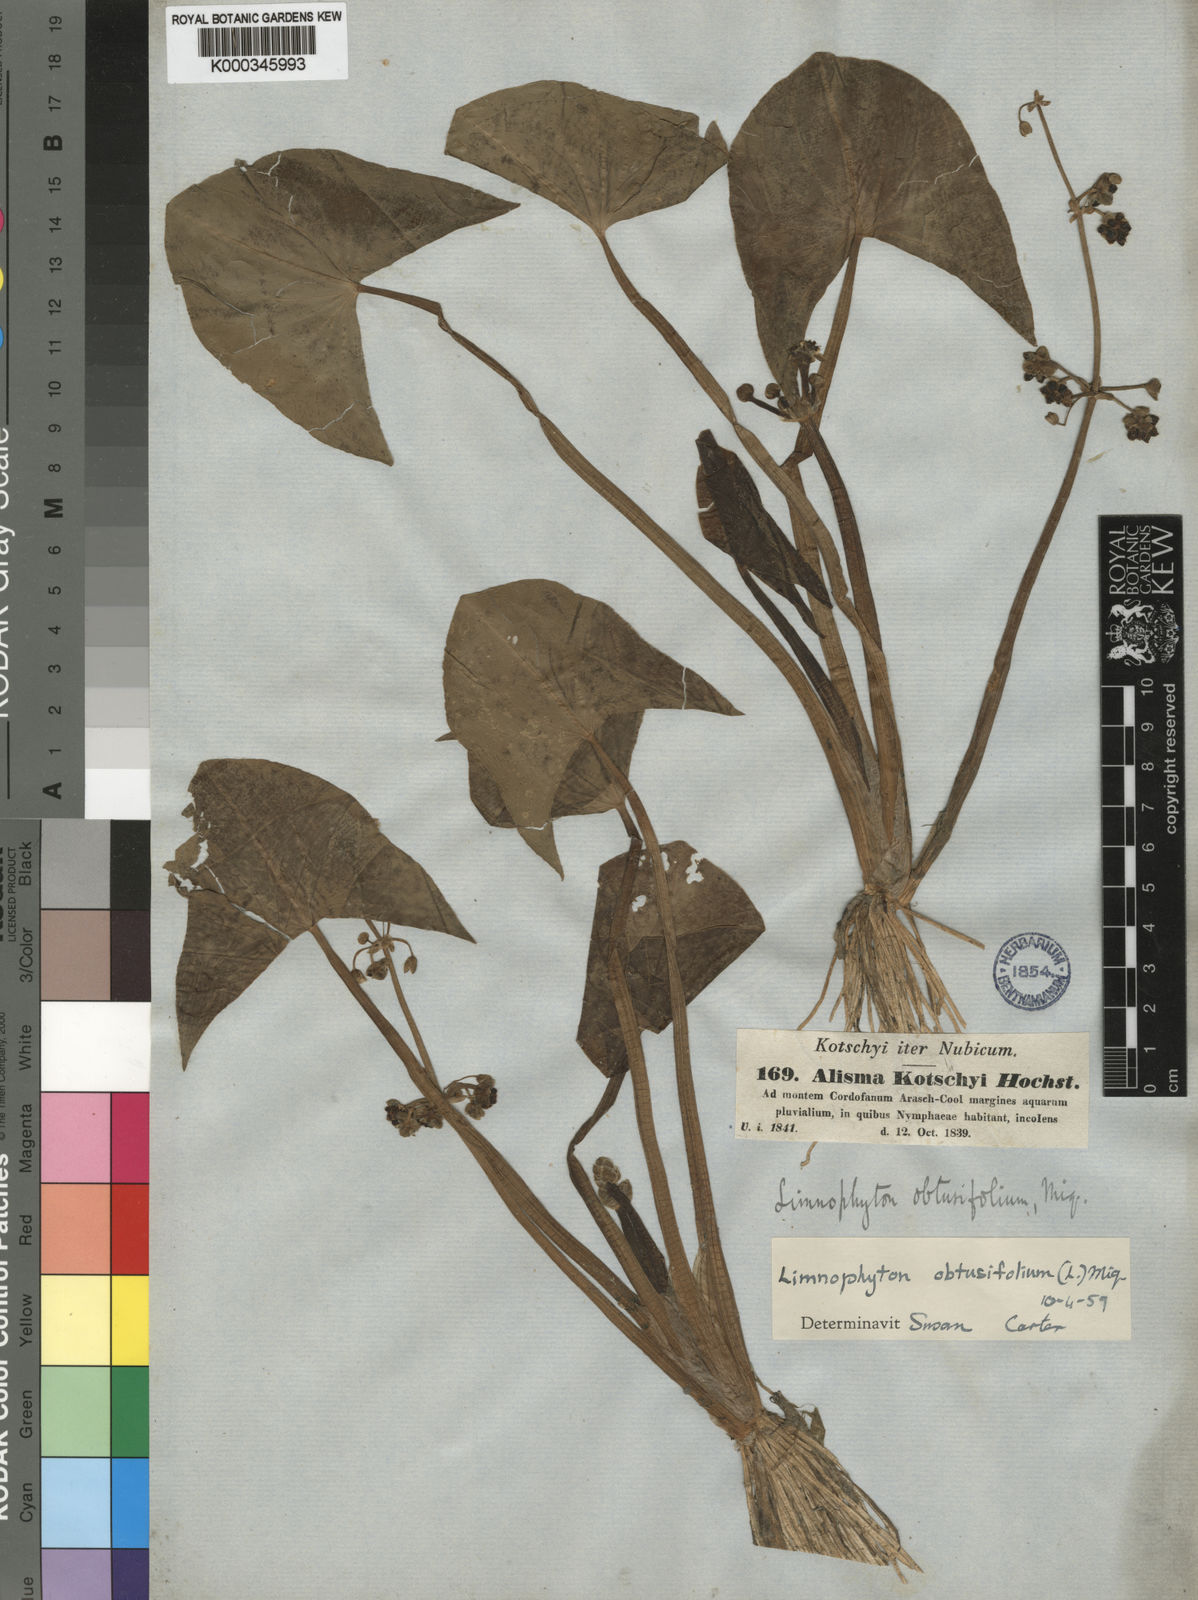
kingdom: Plantae
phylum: Tracheophyta
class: Liliopsida
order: Alismatales
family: Alismataceae
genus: Limnophyton
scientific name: Limnophyton obtusifolium
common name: Arrow head
